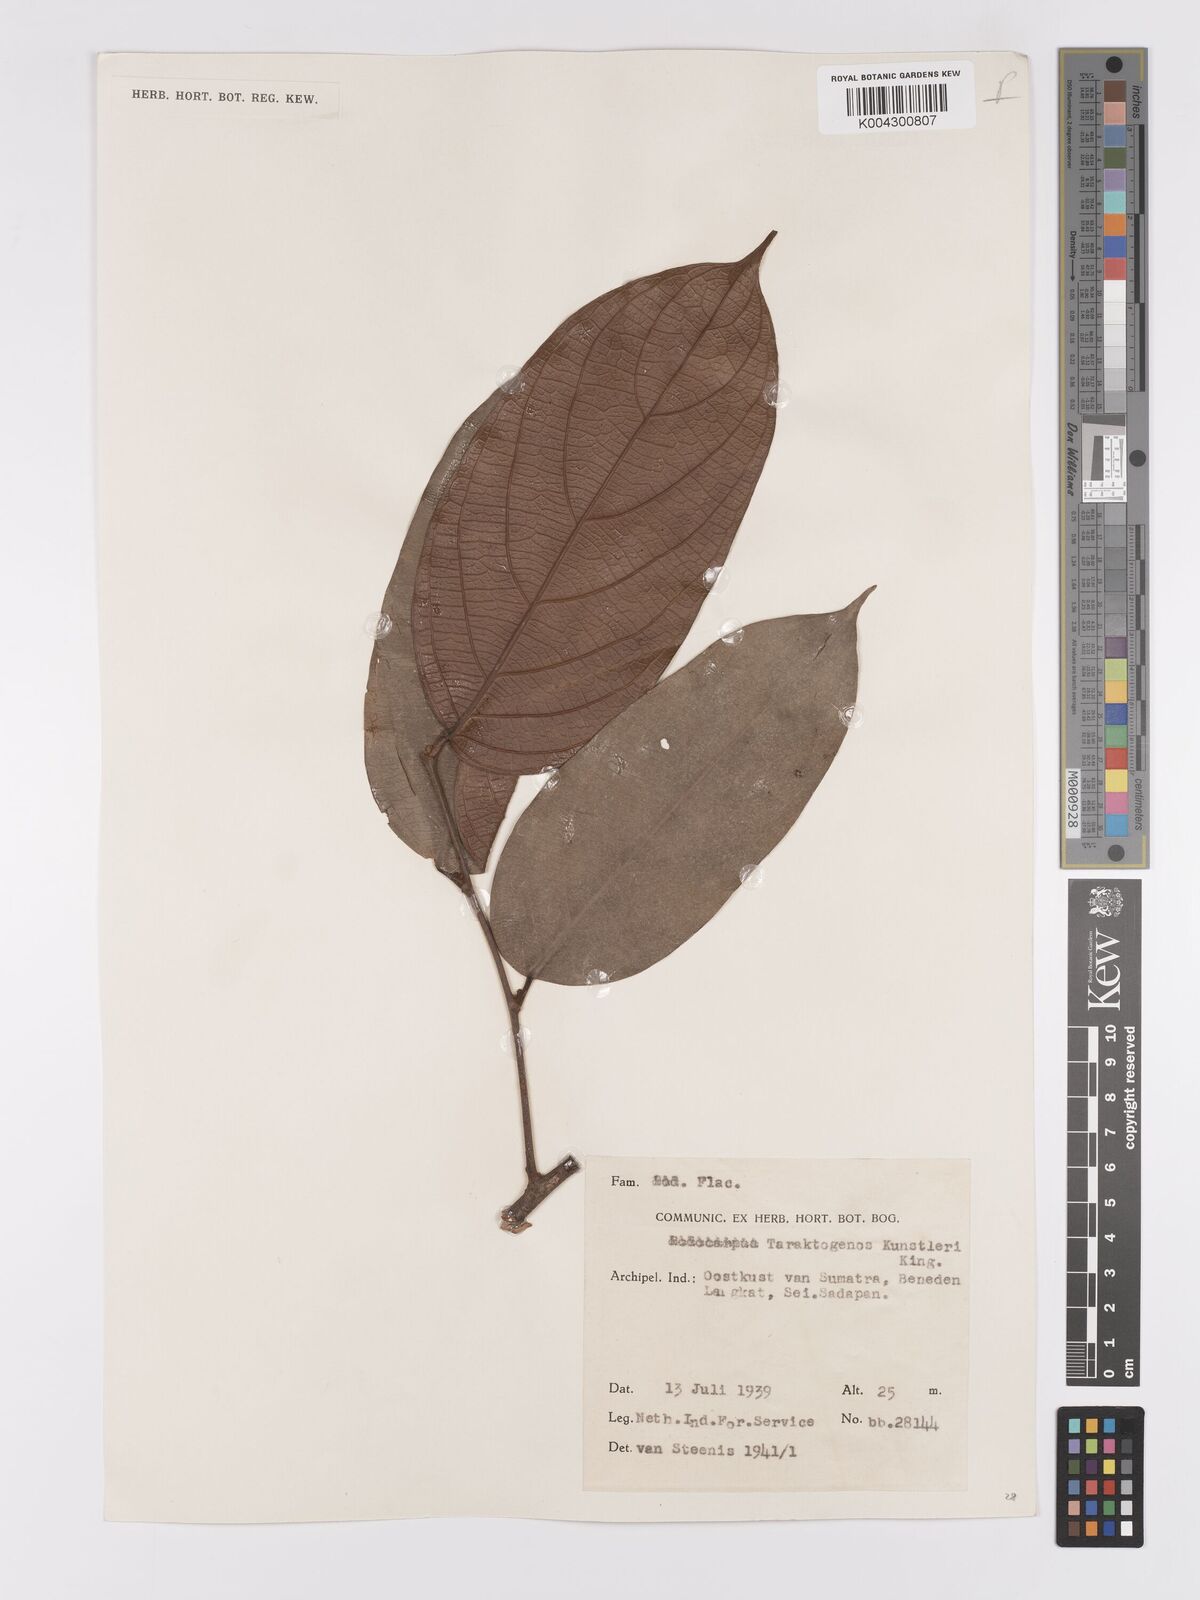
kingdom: Plantae
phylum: Tracheophyta
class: Magnoliopsida
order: Malpighiales
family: Achariaceae
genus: Hydnocarpus
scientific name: Hydnocarpus kunstleri
